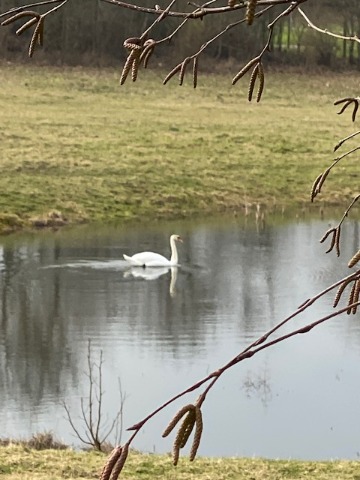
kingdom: Animalia
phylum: Chordata
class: Aves
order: Anseriformes
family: Anatidae
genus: Cygnus
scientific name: Cygnus olor
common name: Knopsvane
